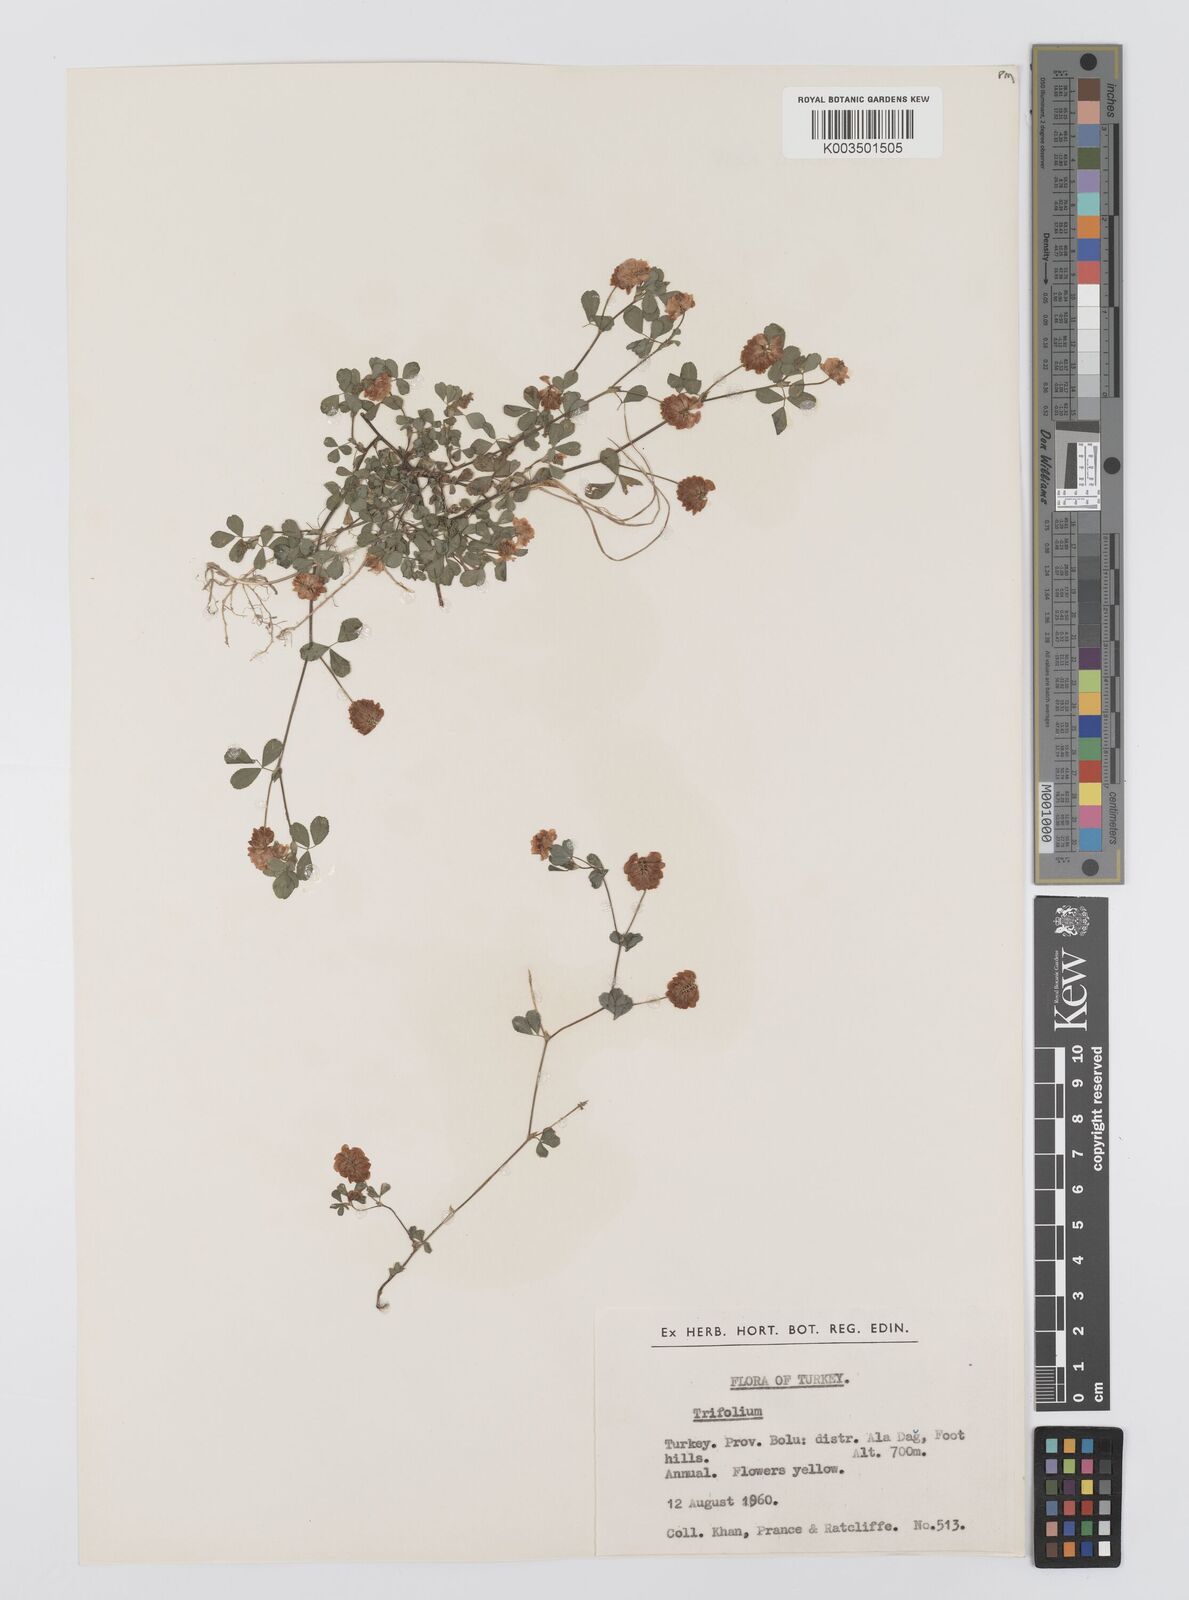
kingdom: Plantae
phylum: Tracheophyta
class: Magnoliopsida
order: Fabales
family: Fabaceae
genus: Trifolium
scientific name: Trifolium campestre
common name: Field clover
